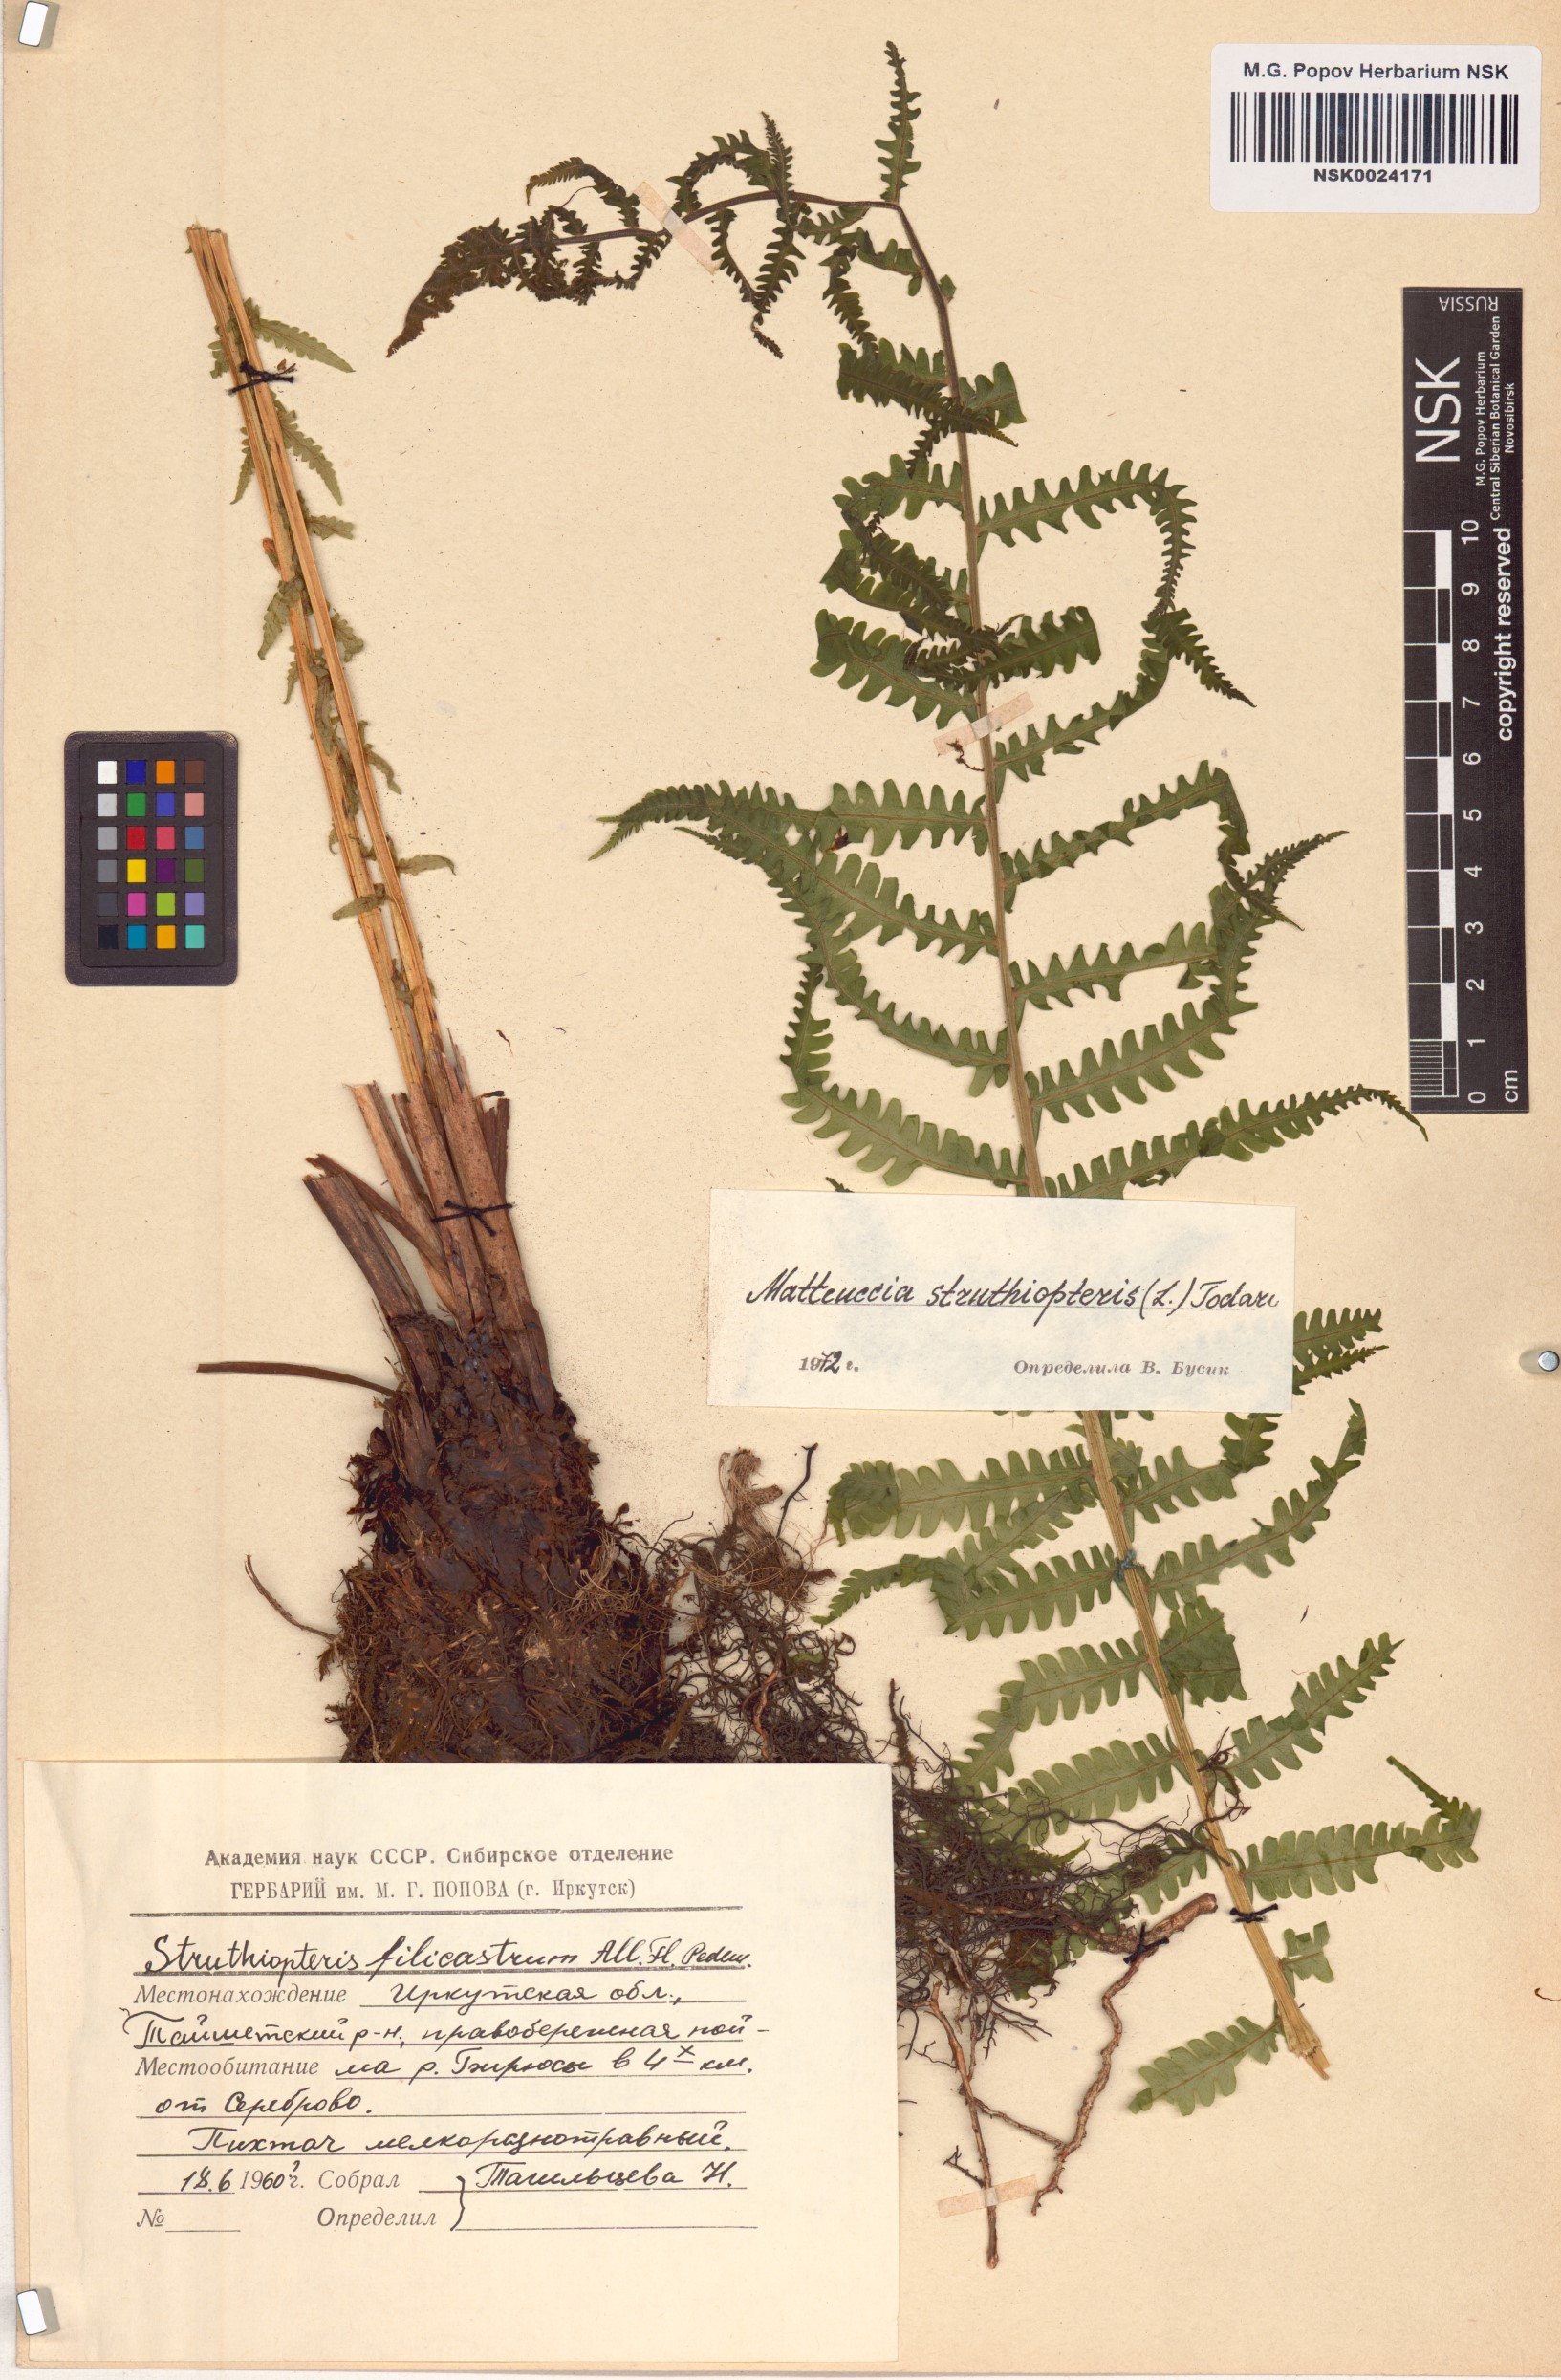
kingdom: Plantae
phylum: Tracheophyta
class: Polypodiopsida
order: Polypodiales
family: Onocleaceae
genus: Matteuccia
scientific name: Matteuccia struthiopteris
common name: Ostrich fern
